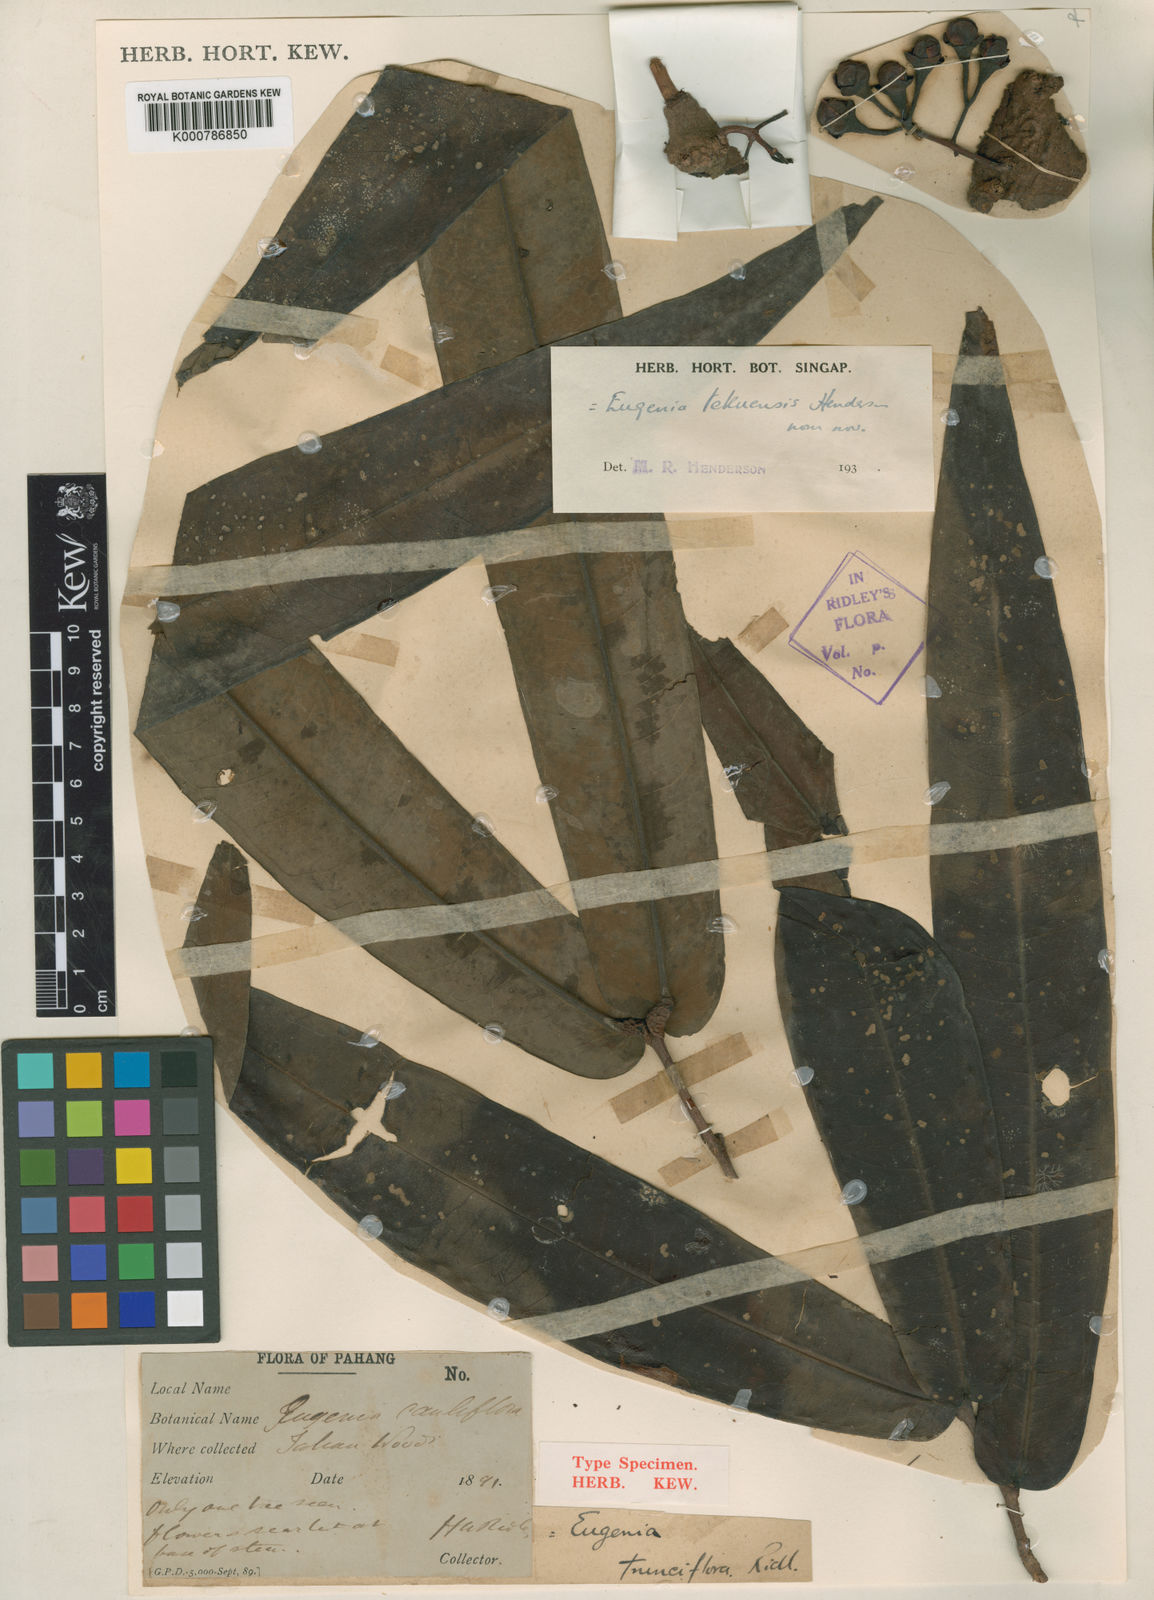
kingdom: Plantae
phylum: Tracheophyta
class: Magnoliopsida
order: Myrtales
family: Myrtaceae
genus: Syzygium
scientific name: Syzygium tekuense
